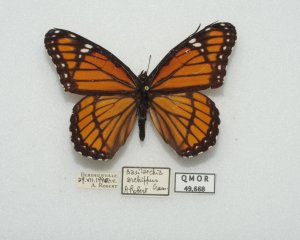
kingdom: Animalia
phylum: Arthropoda
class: Insecta
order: Lepidoptera
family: Nymphalidae
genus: Limenitis
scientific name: Limenitis archippus
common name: Viceroy
